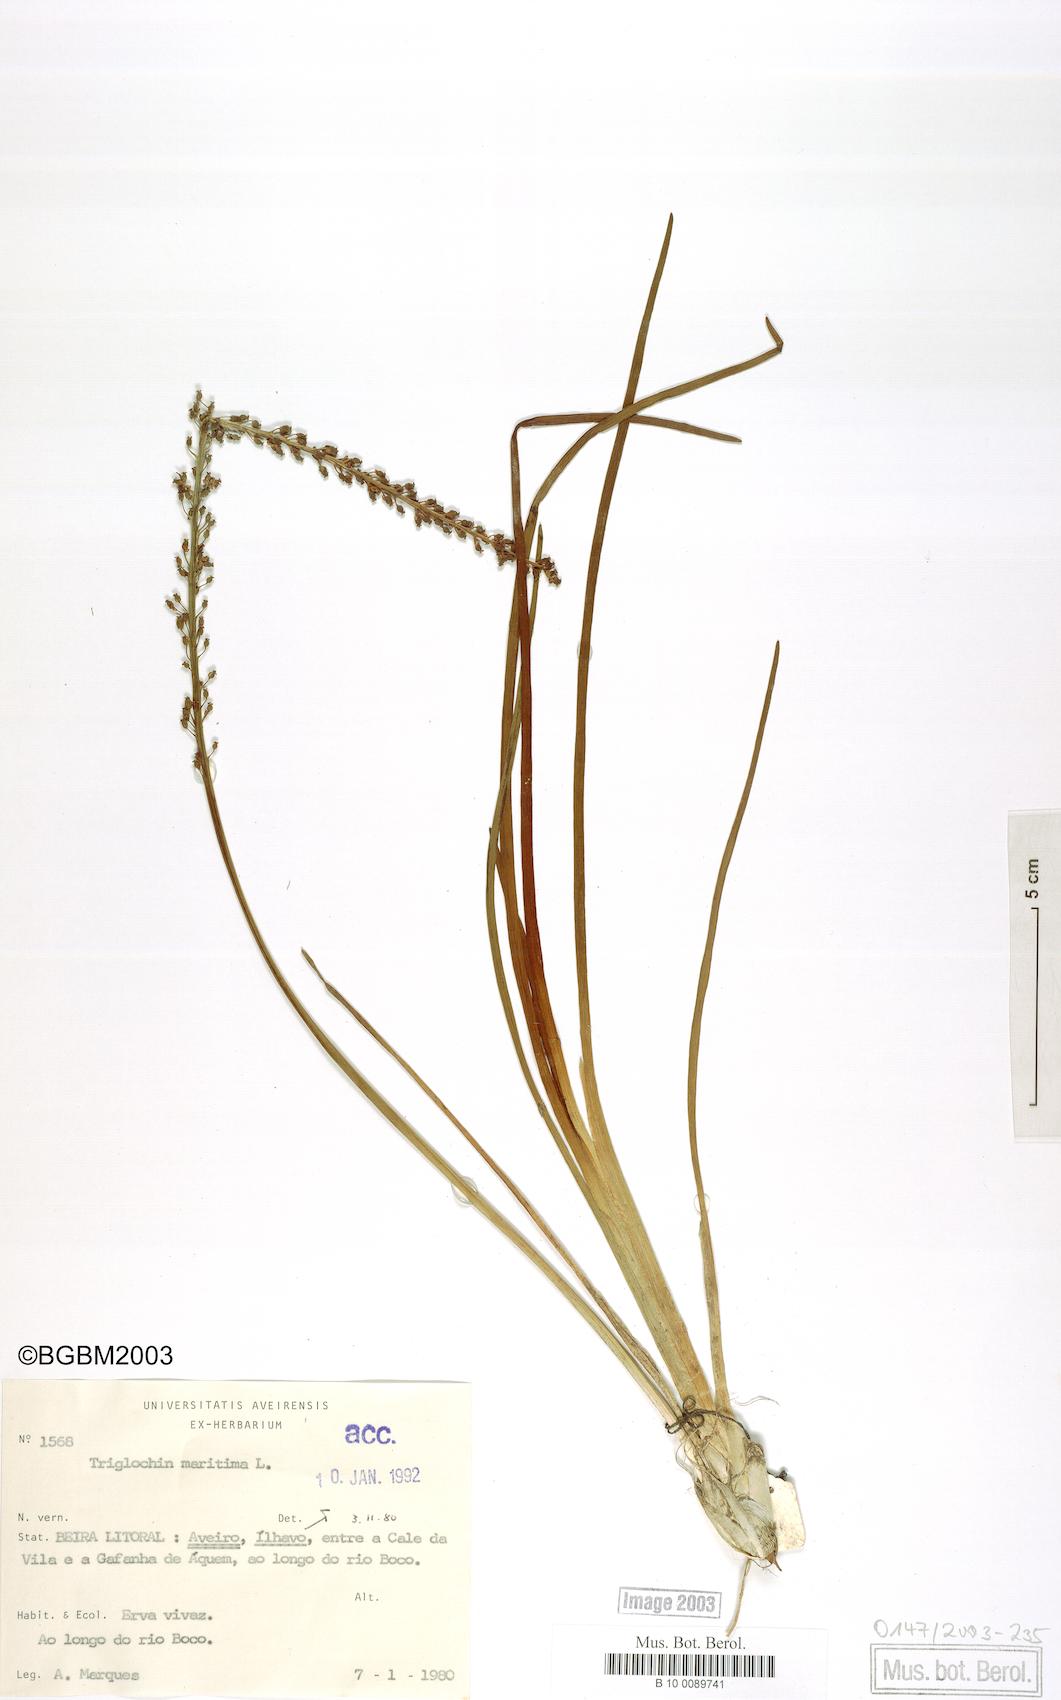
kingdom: Plantae
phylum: Tracheophyta
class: Liliopsida
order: Alismatales
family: Juncaginaceae
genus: Triglochin
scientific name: Triglochin maritima
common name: Sea arrowgrass
